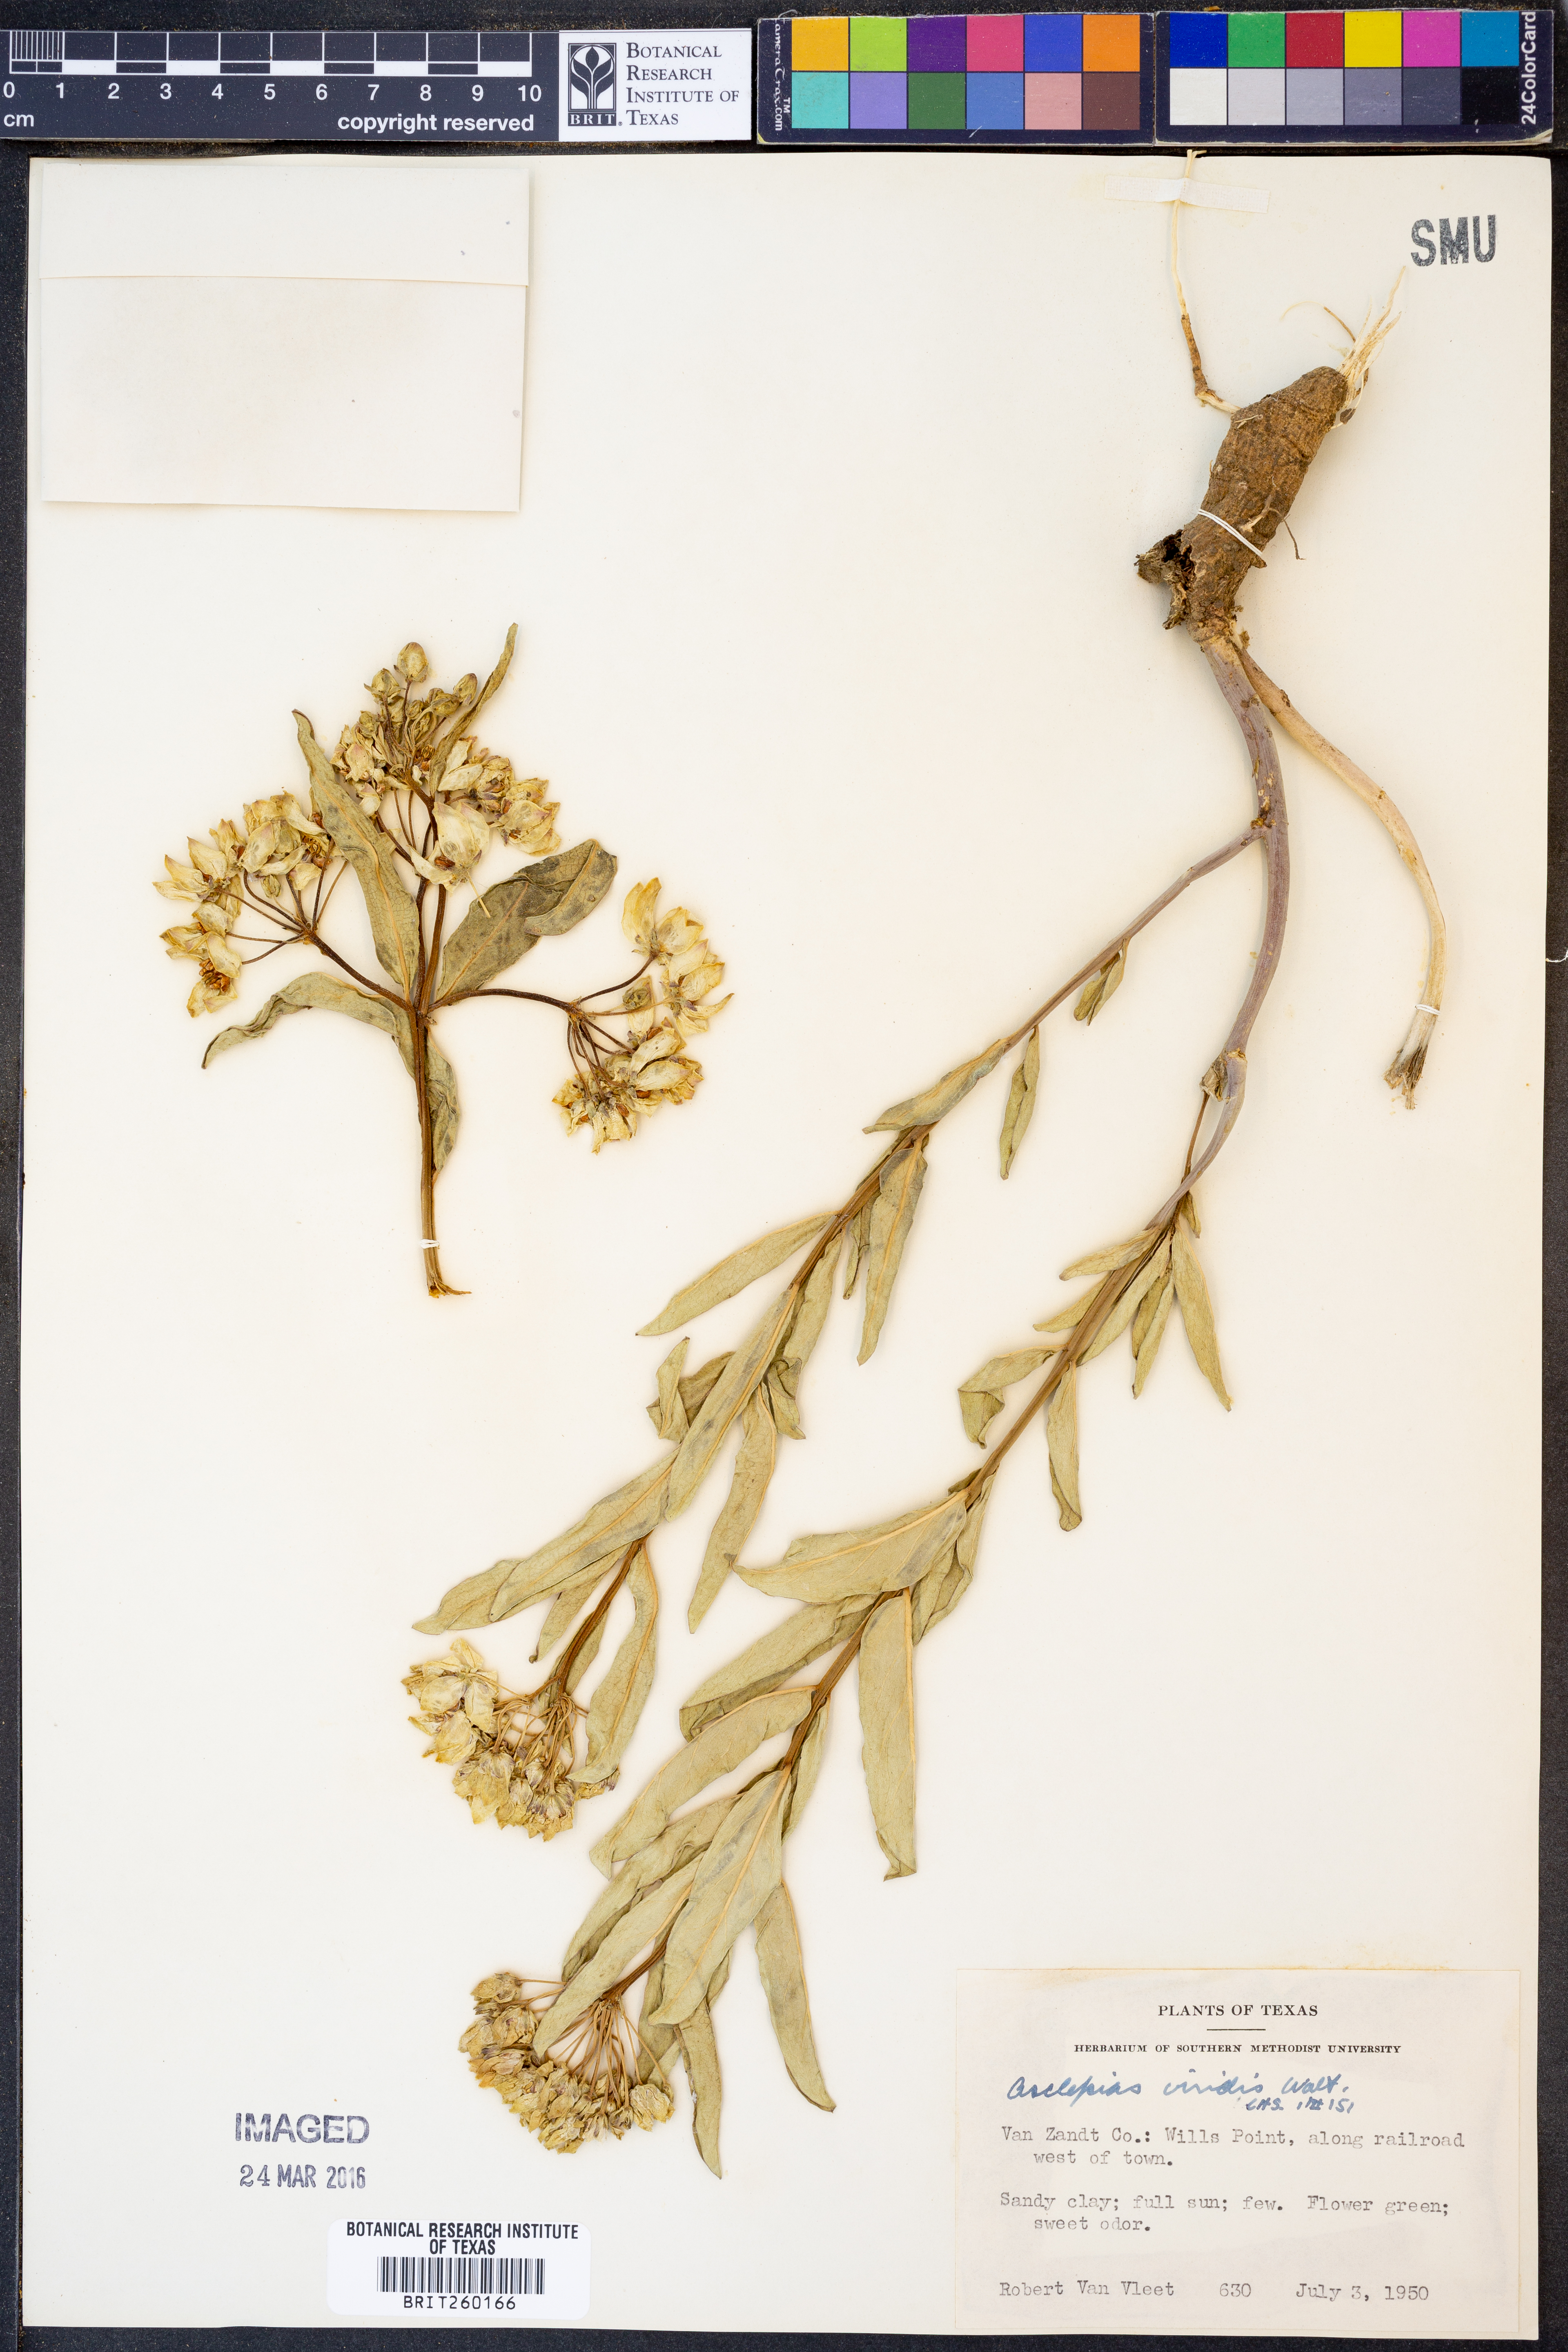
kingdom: Plantae
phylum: Tracheophyta
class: Magnoliopsida
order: Gentianales
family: Apocynaceae
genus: Asclepias
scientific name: Asclepias viridis
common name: Antelope-horns
